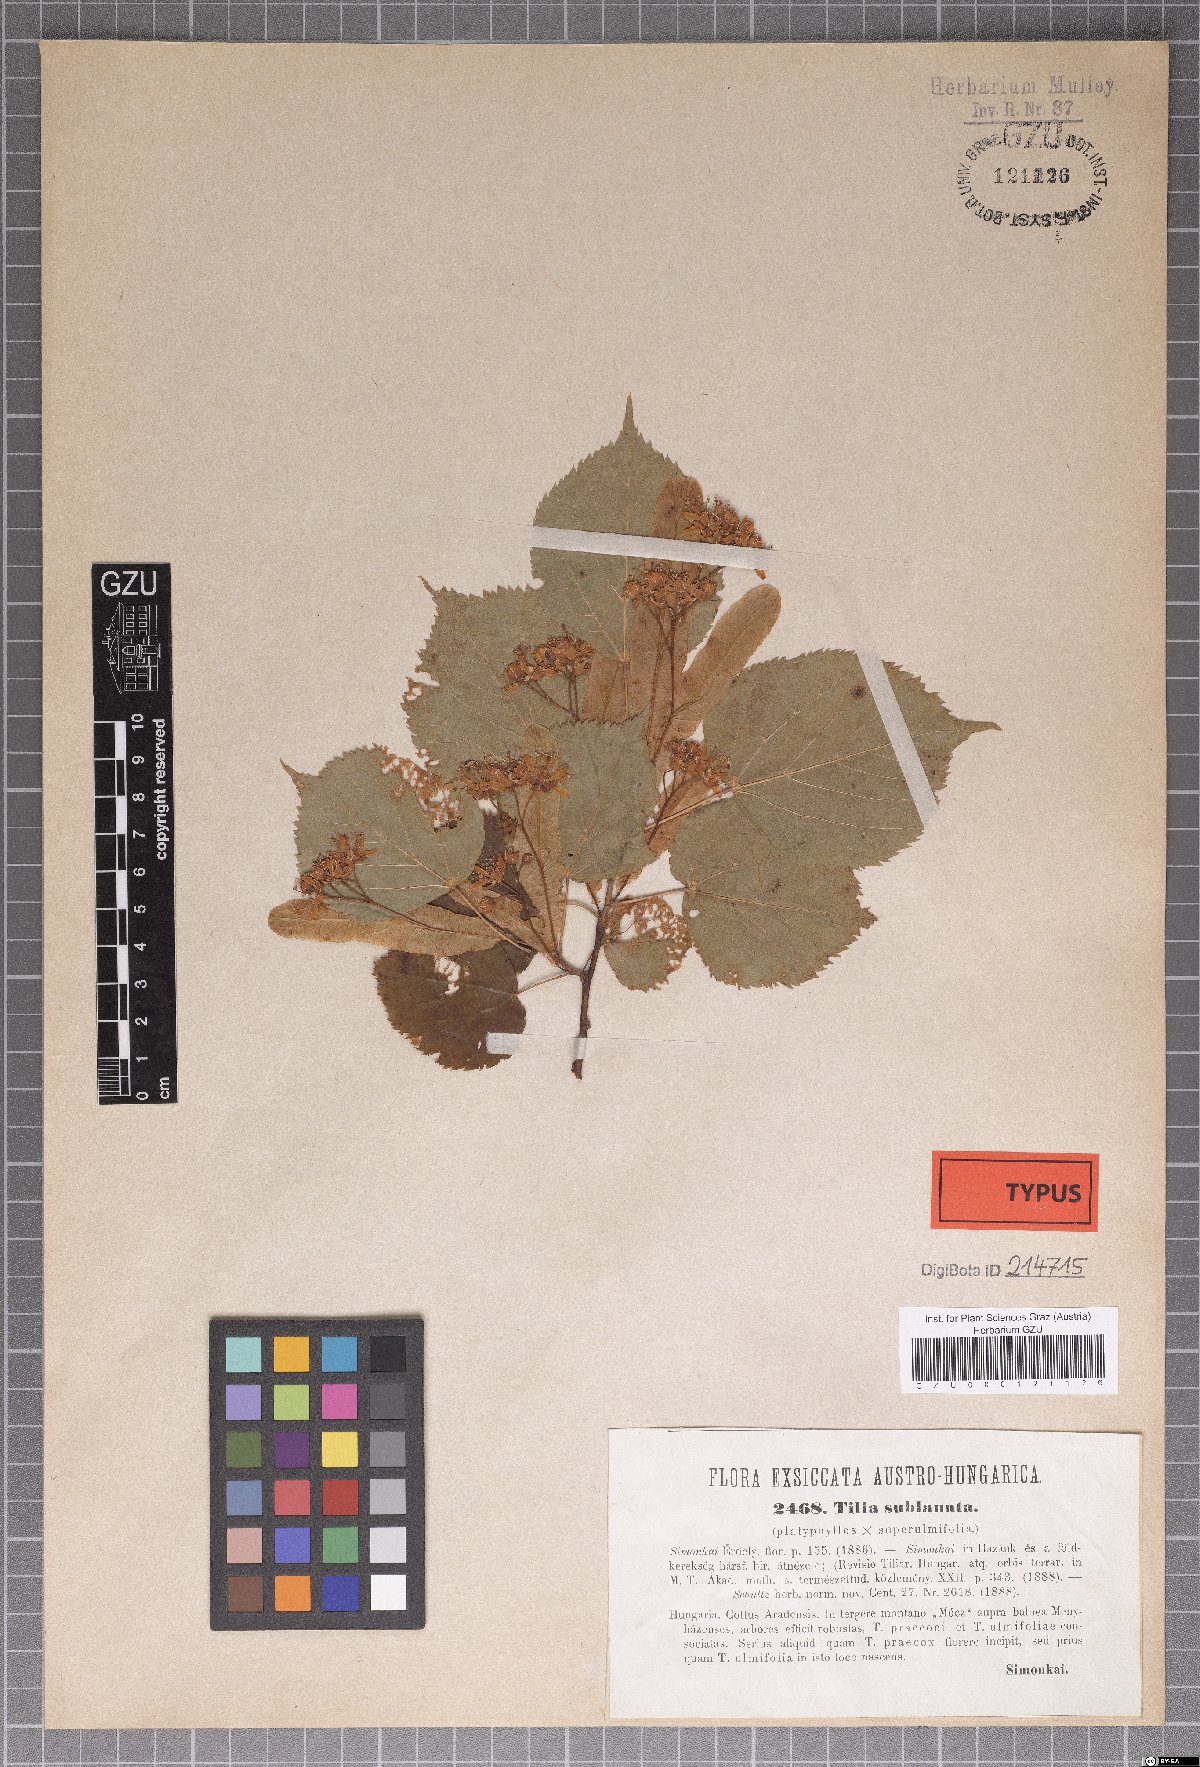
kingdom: Plantae
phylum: Tracheophyta
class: Magnoliopsida
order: Malvales
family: Malvaceae
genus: Tilia
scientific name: Tilia
